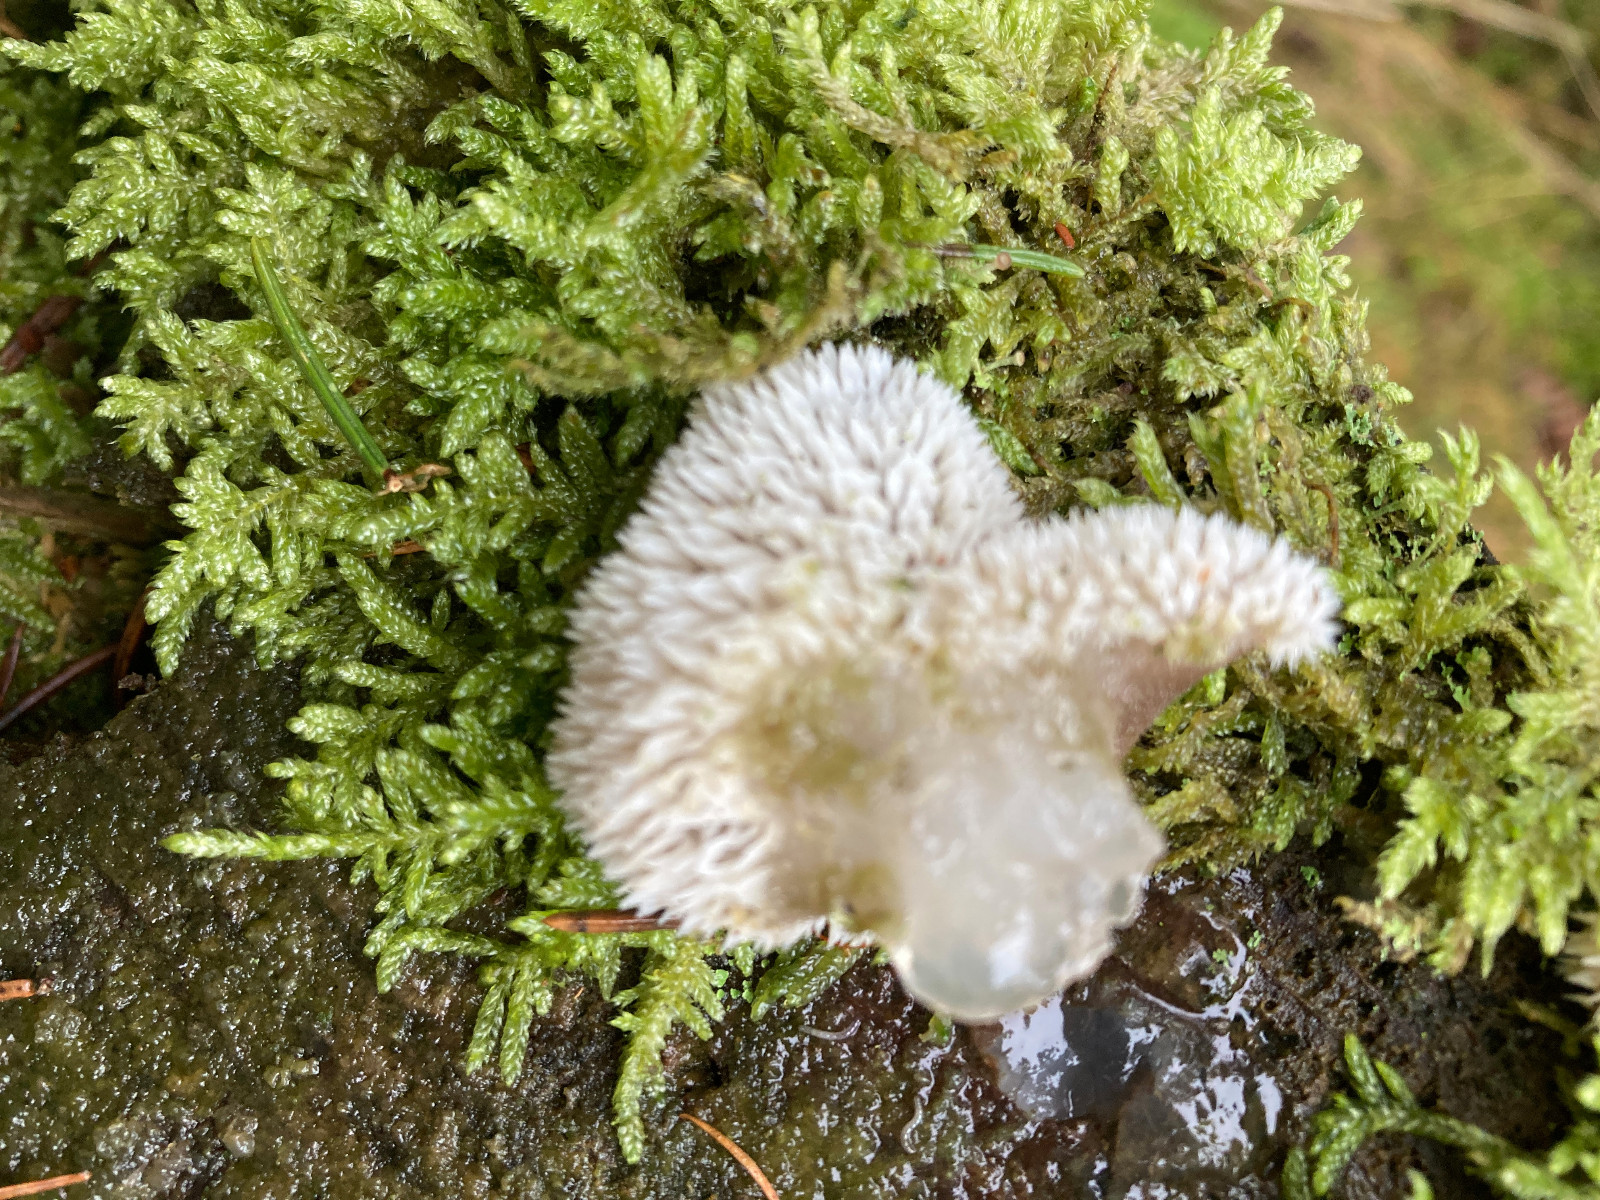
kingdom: Fungi
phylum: Basidiomycota
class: Agaricomycetes
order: Auriculariales
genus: Pseudohydnum
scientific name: Pseudohydnum gelatinosum
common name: bævretand
